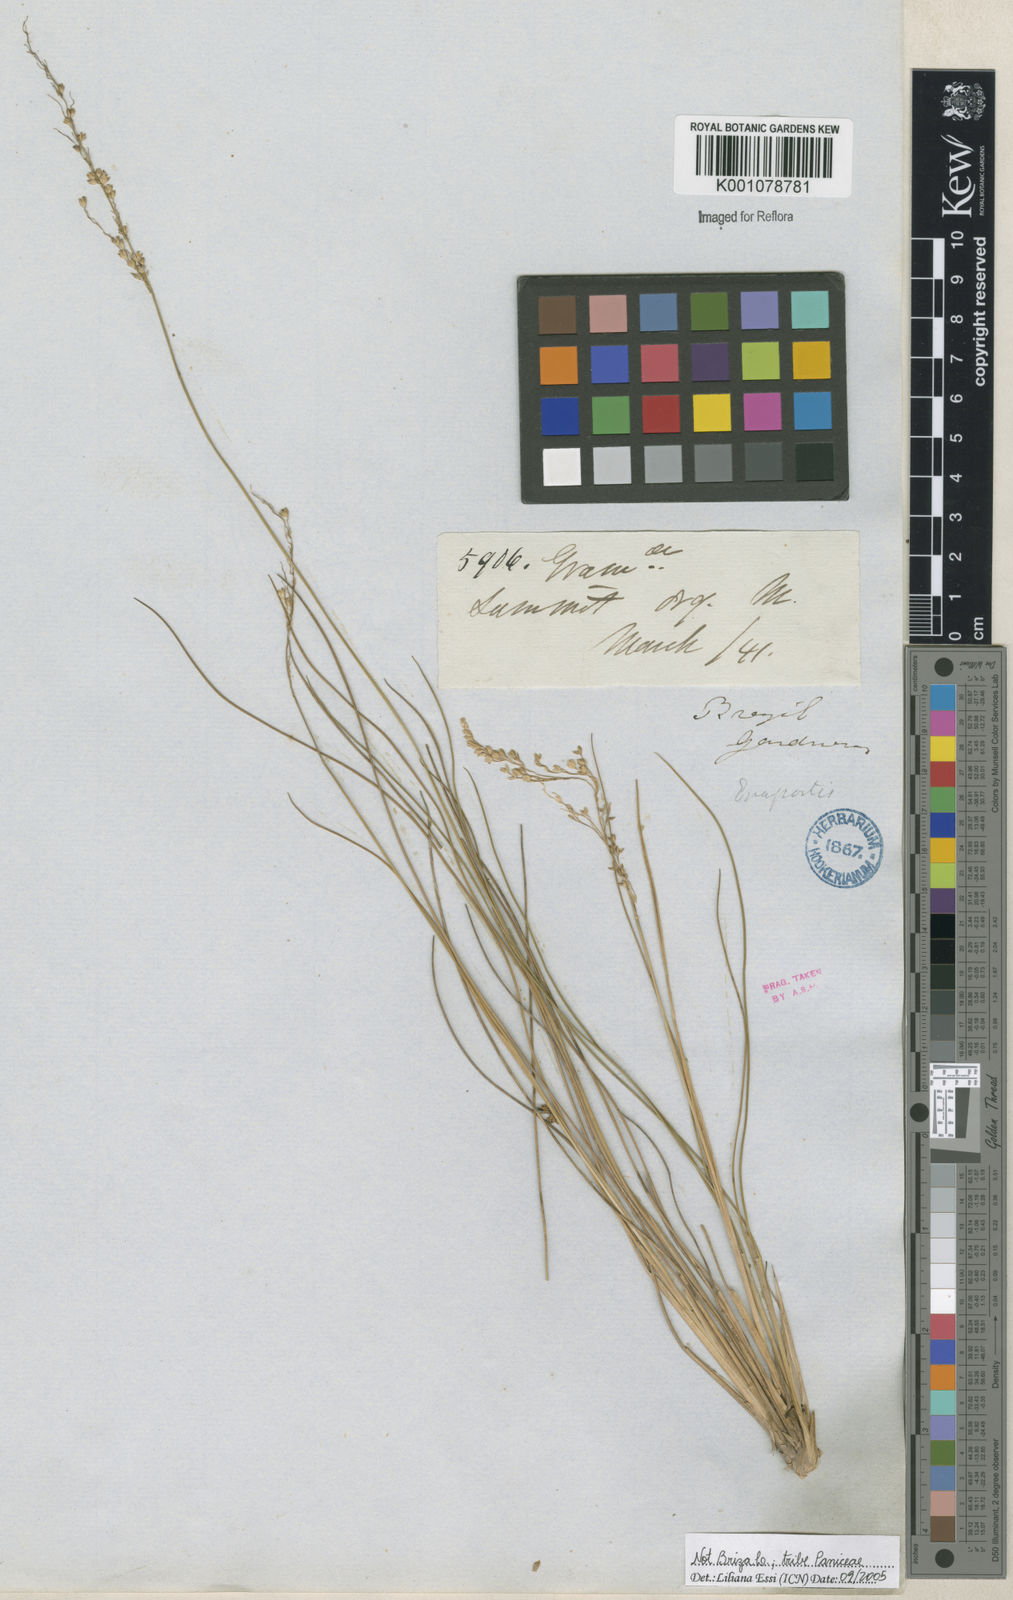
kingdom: Plantae
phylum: Tracheophyta
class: Liliopsida
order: Poales
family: Poaceae
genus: Panicum
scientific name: Panicum
